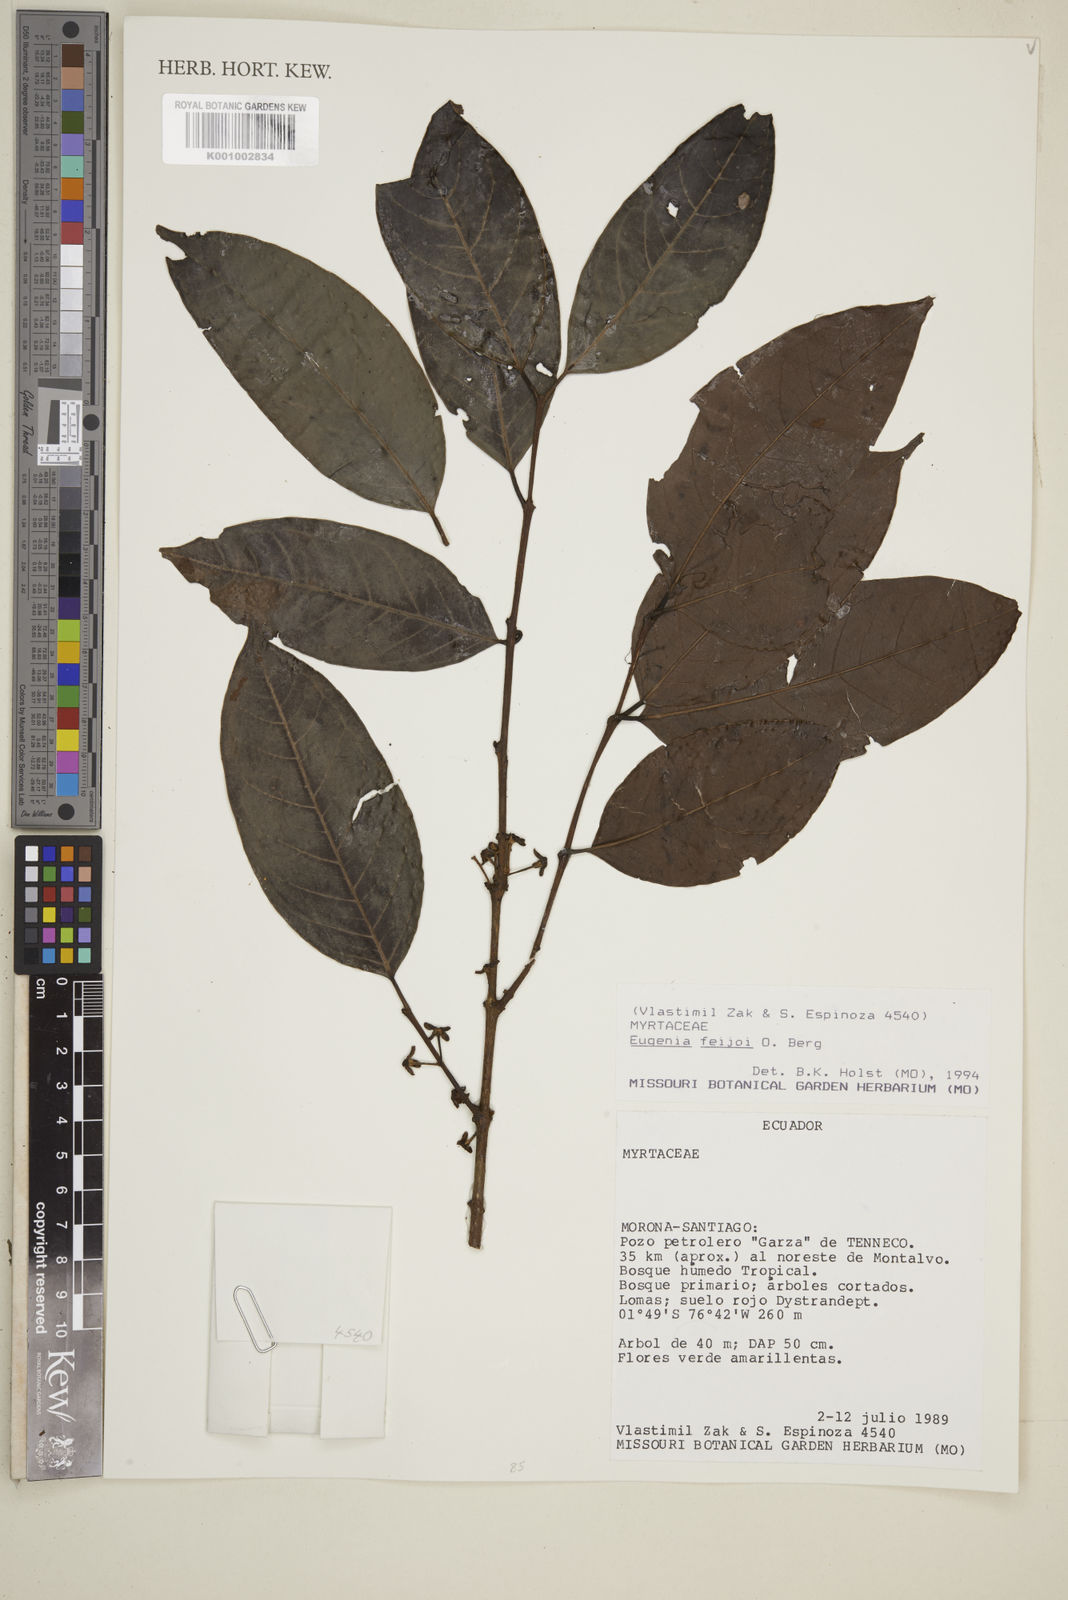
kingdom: Plantae
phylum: Tracheophyta
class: Magnoliopsida
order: Myrtales
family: Myrtaceae
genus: Eugenia
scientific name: Eugenia feijoi
